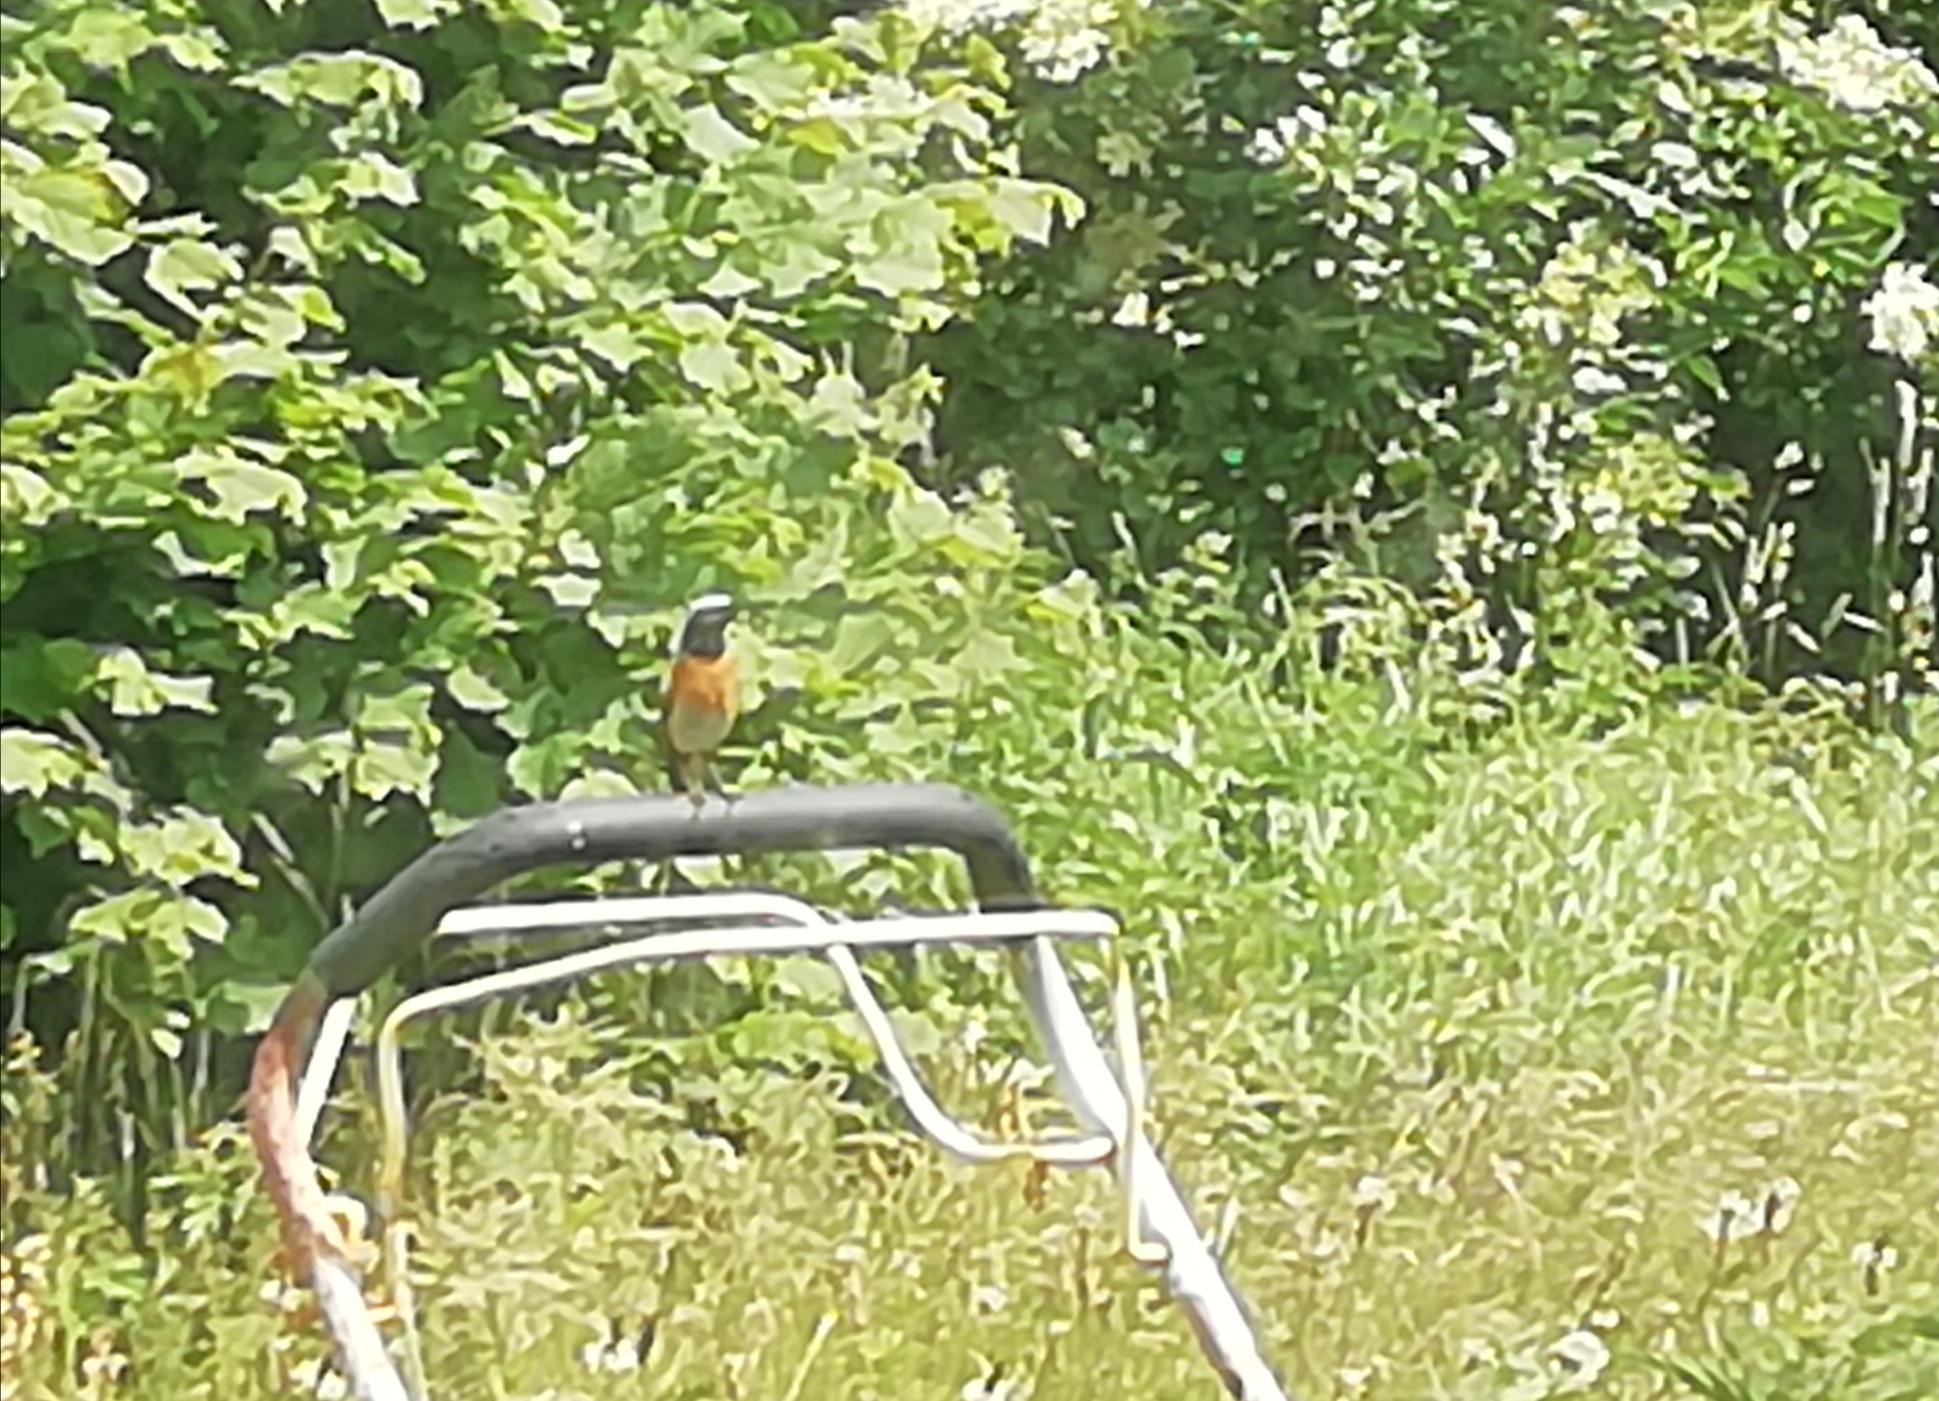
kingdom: Animalia
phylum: Chordata
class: Aves
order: Passeriformes
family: Muscicapidae
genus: Phoenicurus
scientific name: Phoenicurus phoenicurus
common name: Rødstjert
